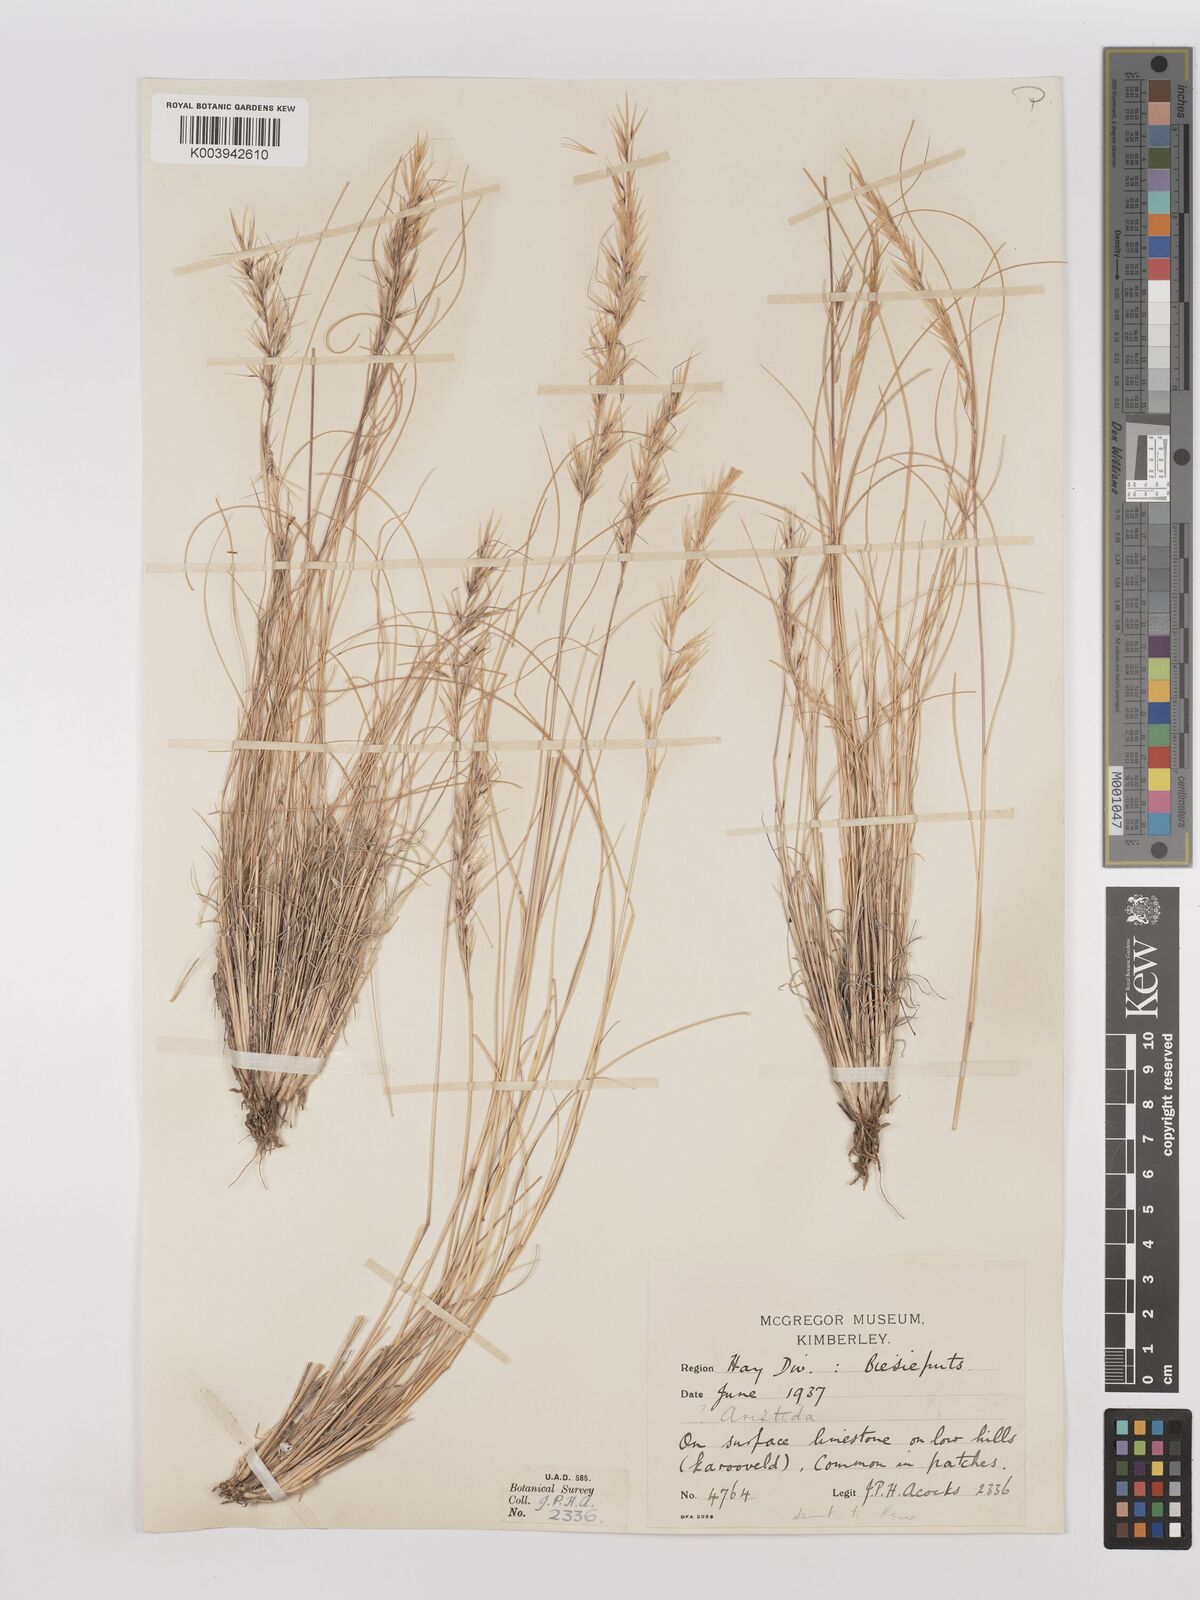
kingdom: Plantae
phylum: Tracheophyta
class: Liliopsida
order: Poales
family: Poaceae
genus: Stipagrostis
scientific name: Stipagrostis anomala
